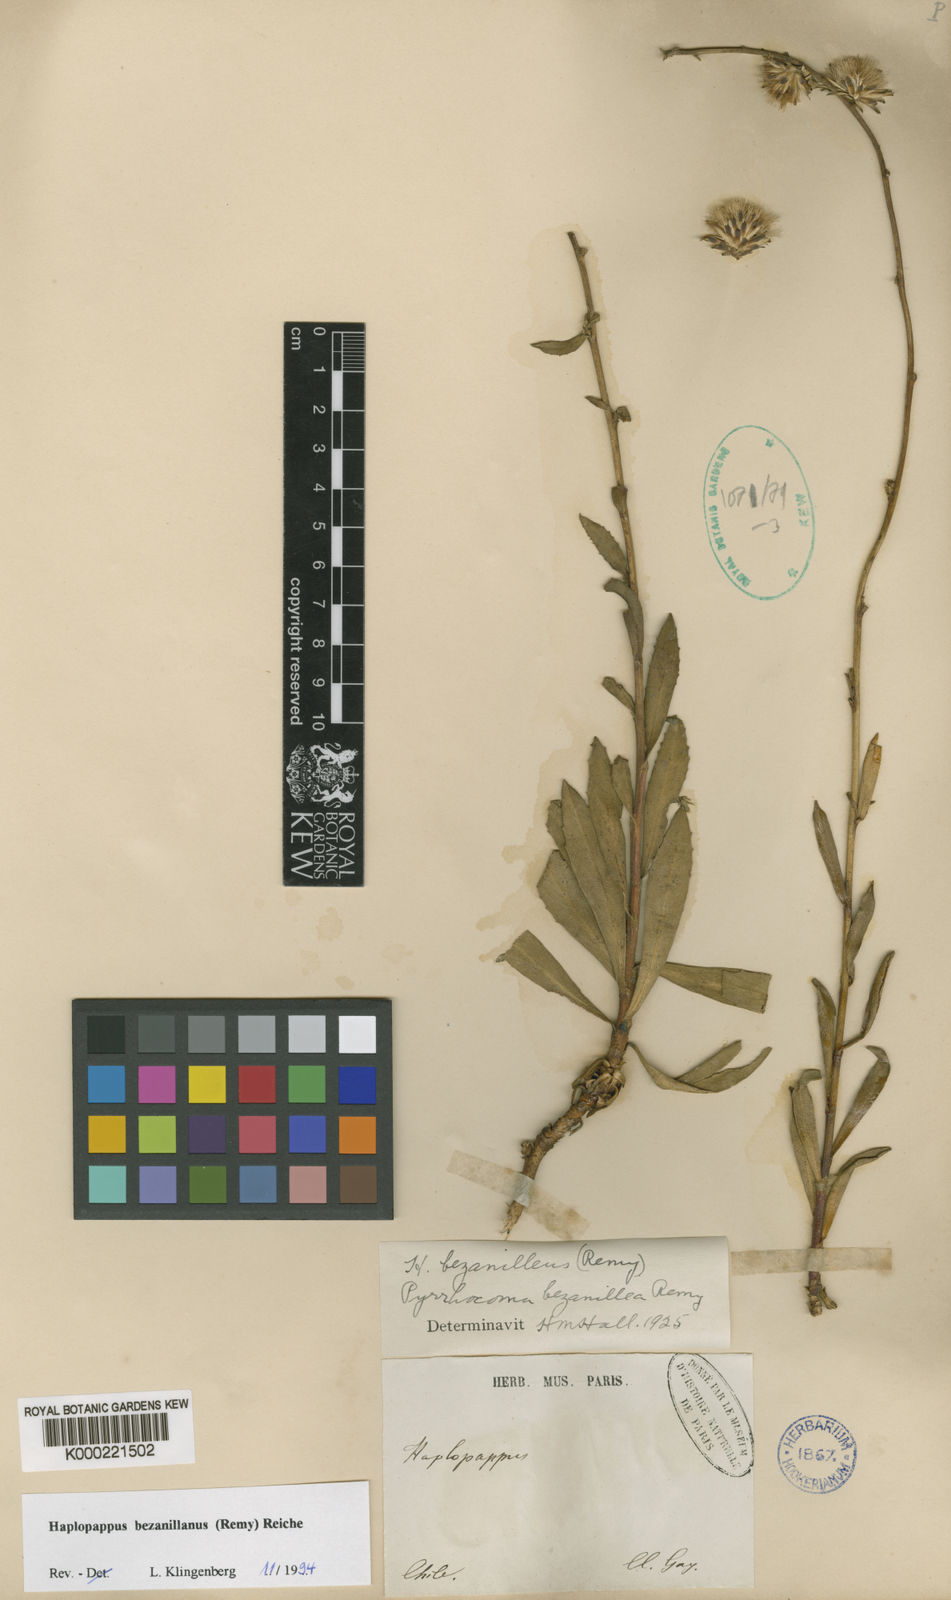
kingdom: Plantae
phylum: Tracheophyta
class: Magnoliopsida
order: Asterales
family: Asteraceae
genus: Haplopappus
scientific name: Haplopappus bezanillanus
